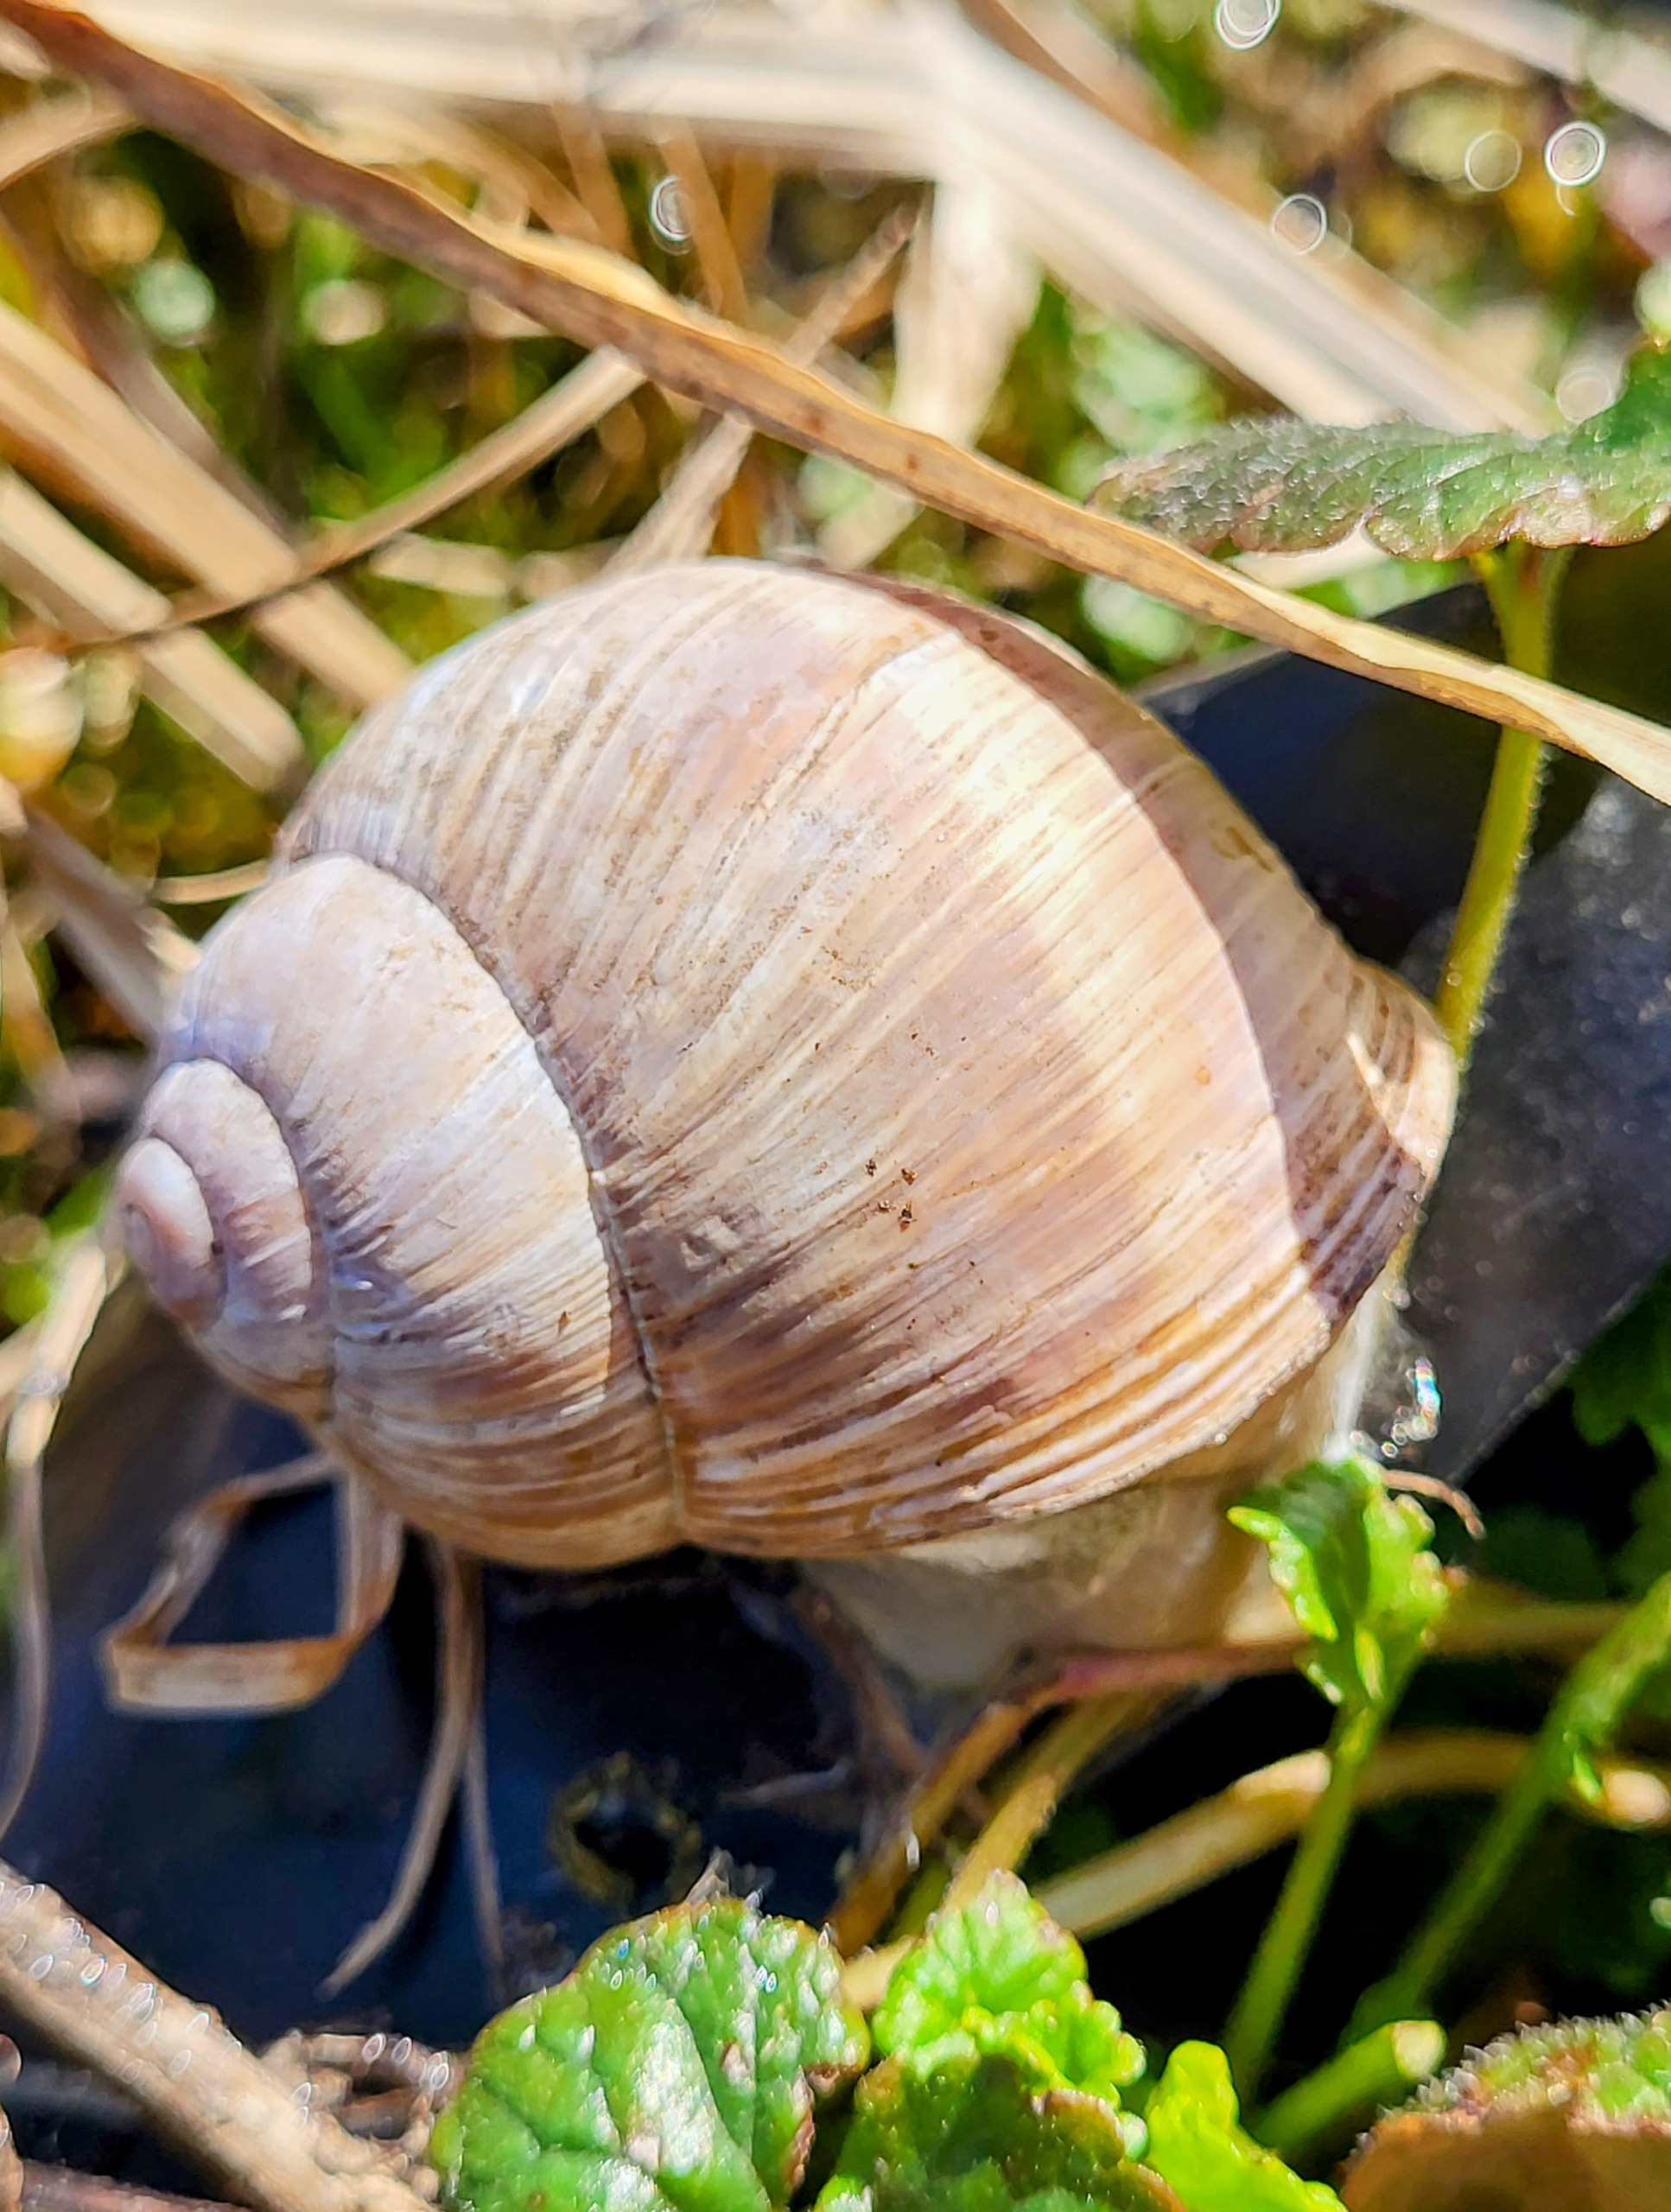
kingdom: Animalia
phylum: Mollusca
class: Gastropoda
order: Stylommatophora
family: Helicidae
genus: Helix
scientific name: Helix pomatia
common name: Vinbjergsnegl
